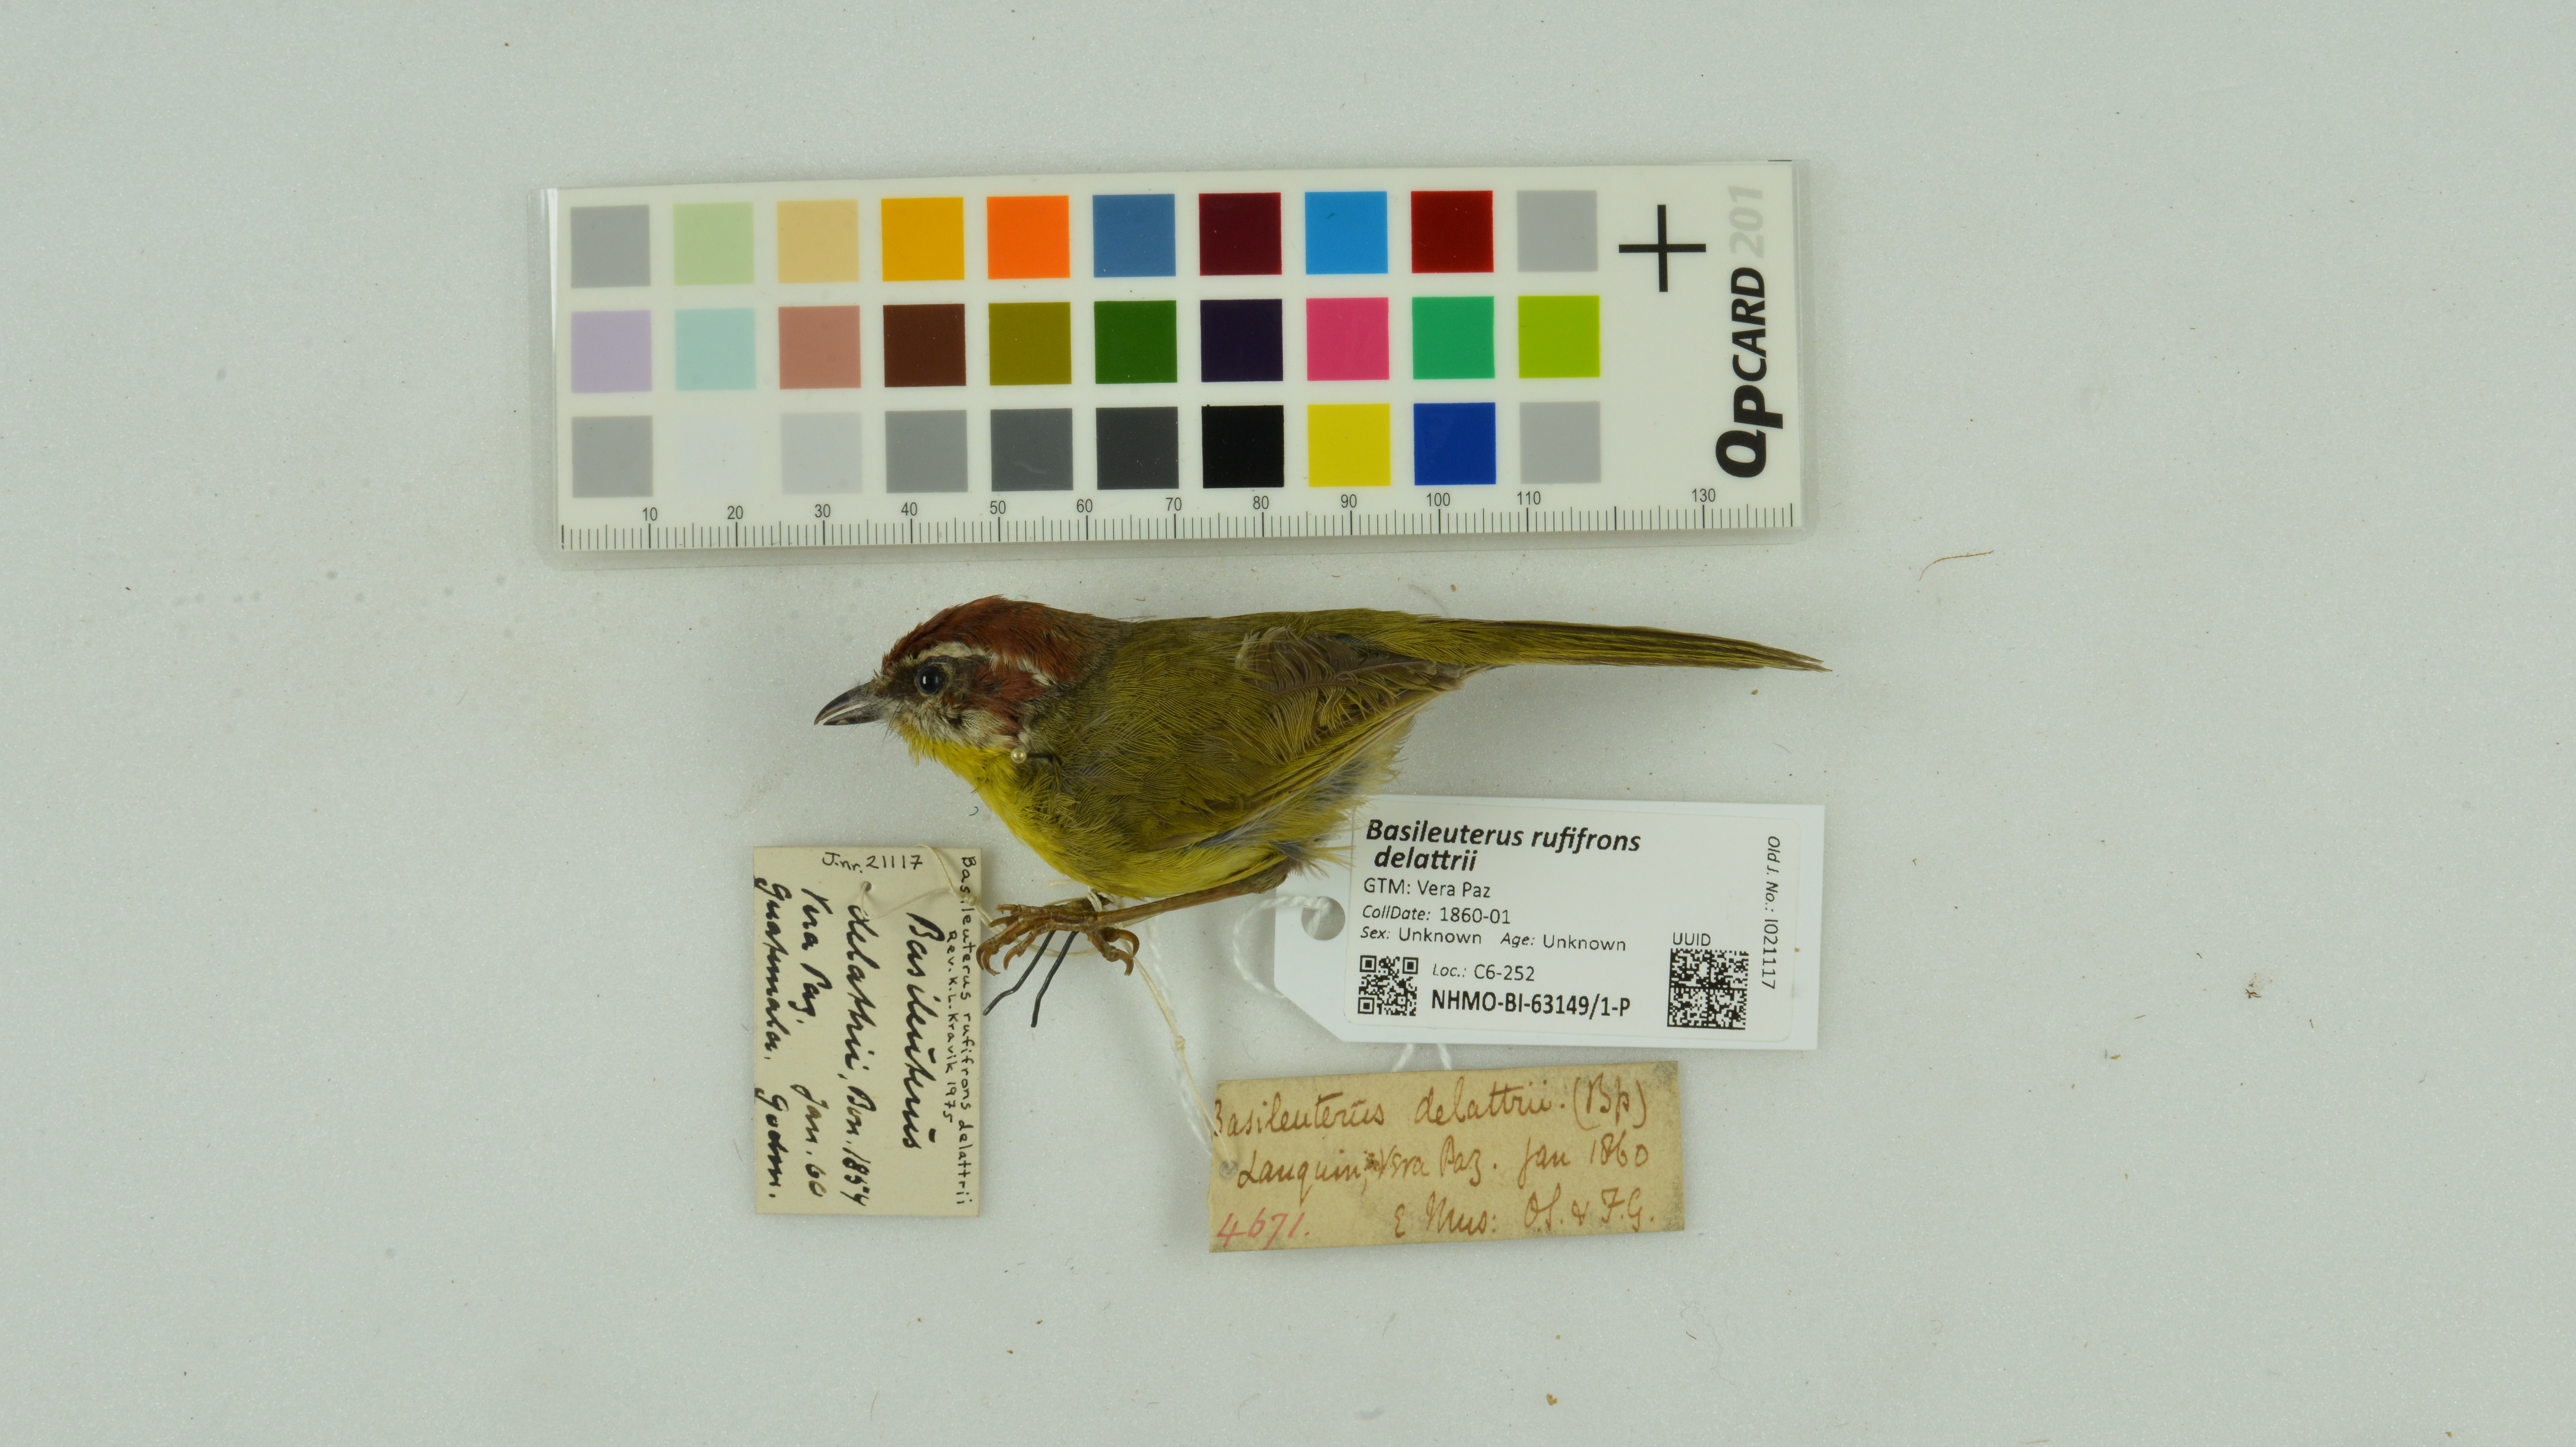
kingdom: Animalia
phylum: Chordata
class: Aves
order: Passeriformes
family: Parulidae
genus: Basileuterus
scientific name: Basileuterus rufifrons
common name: Rufous-capped warbler
